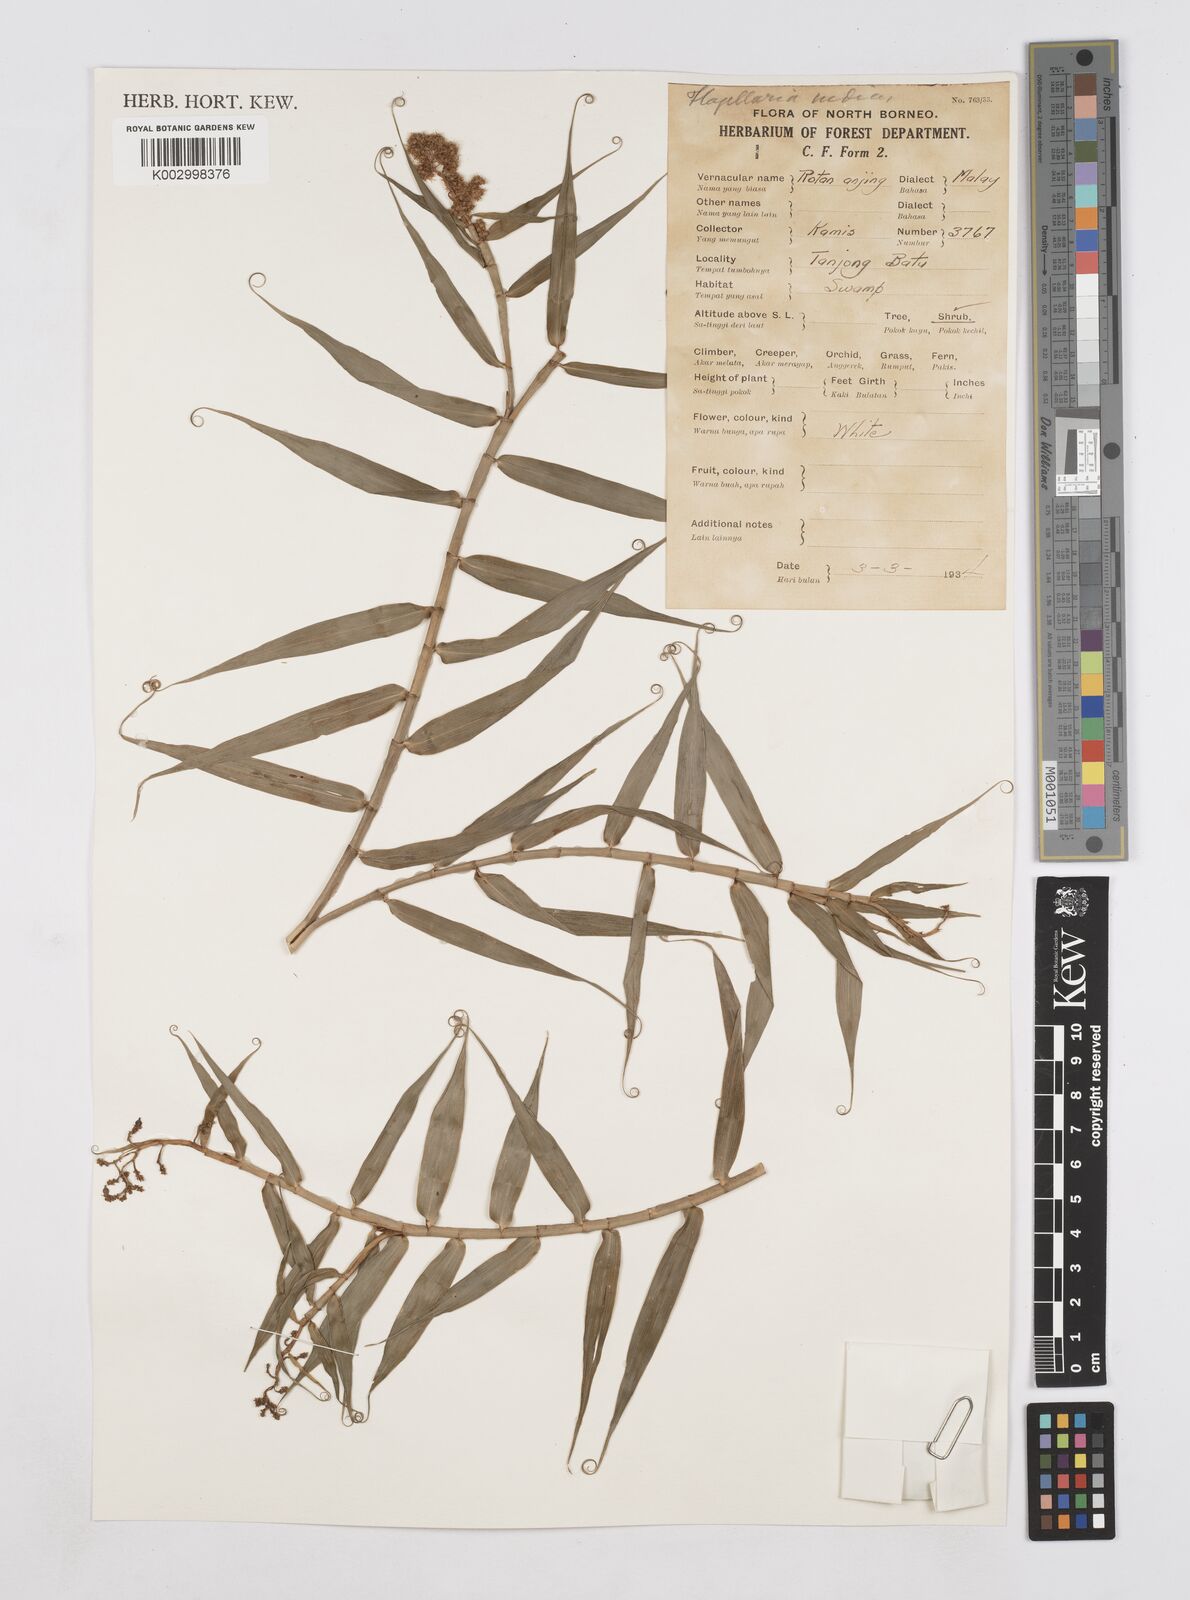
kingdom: Plantae
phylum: Tracheophyta
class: Liliopsida
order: Poales
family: Flagellariaceae
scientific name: Flagellariaceae
